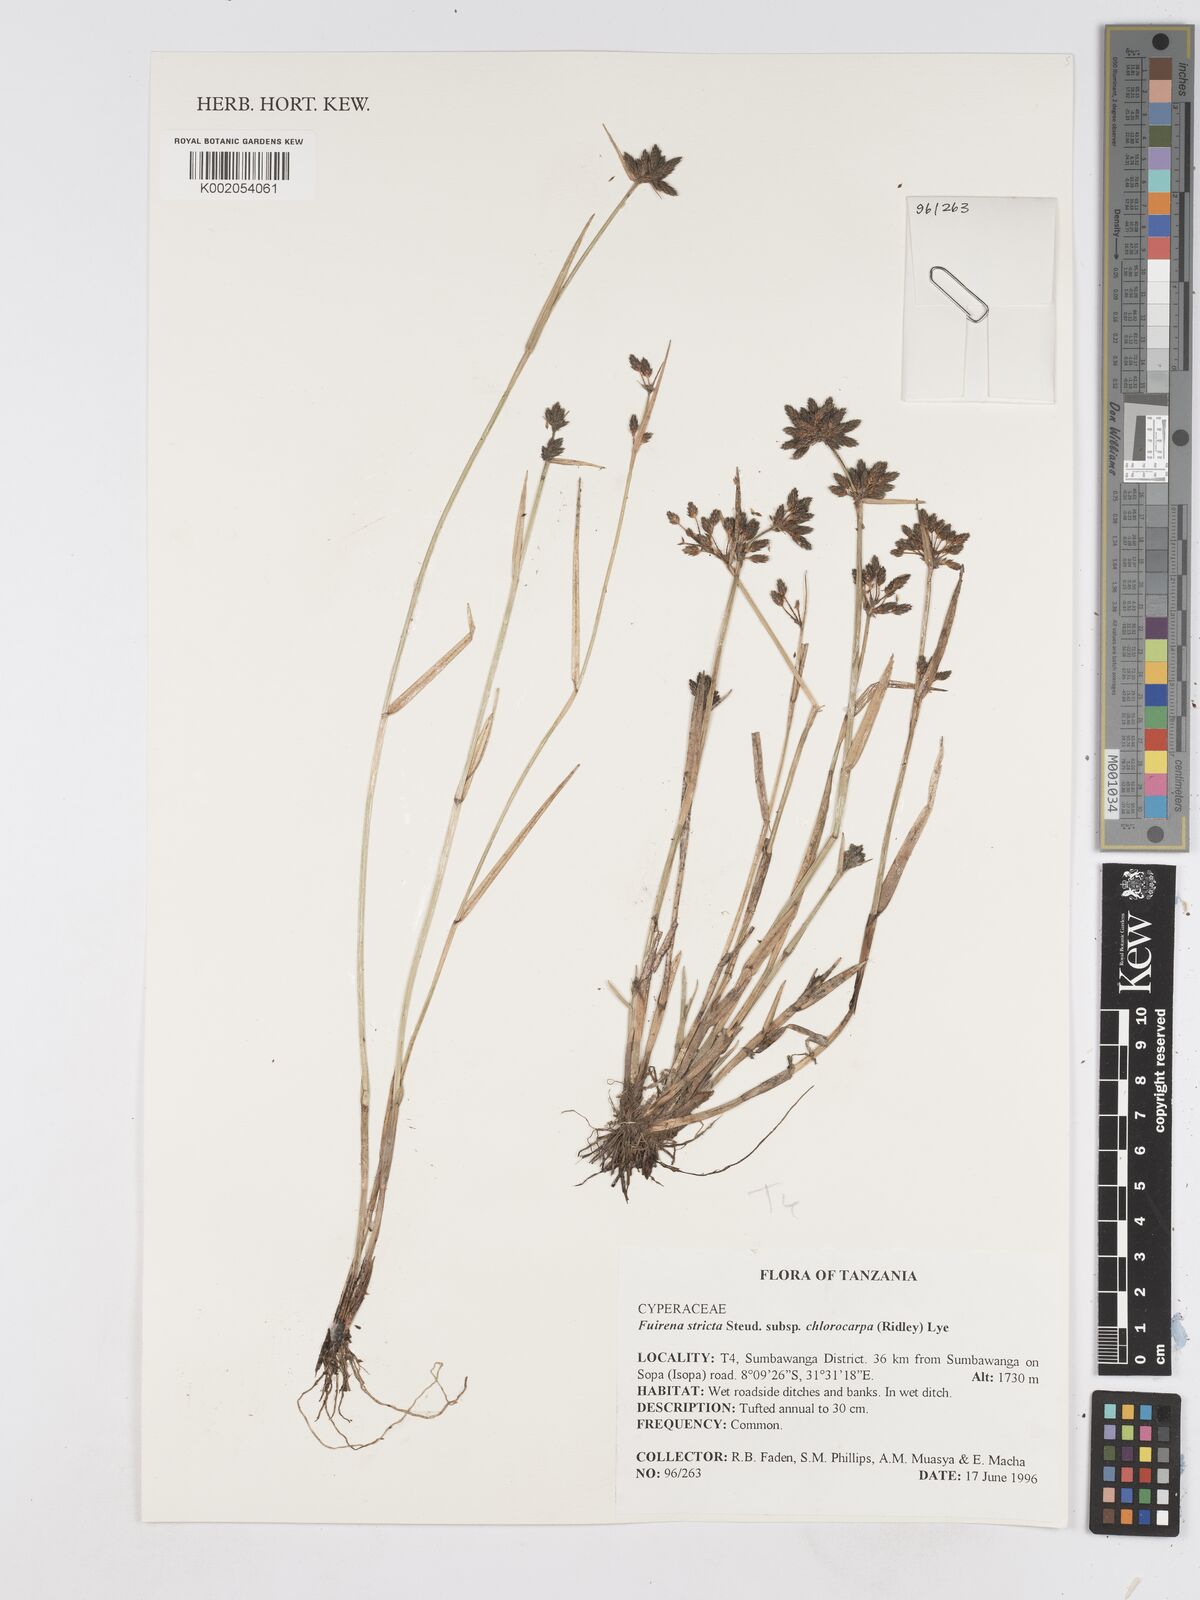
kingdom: Plantae
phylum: Tracheophyta
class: Liliopsida
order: Poales
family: Cyperaceae
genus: Fuirena
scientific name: Fuirena stricta
